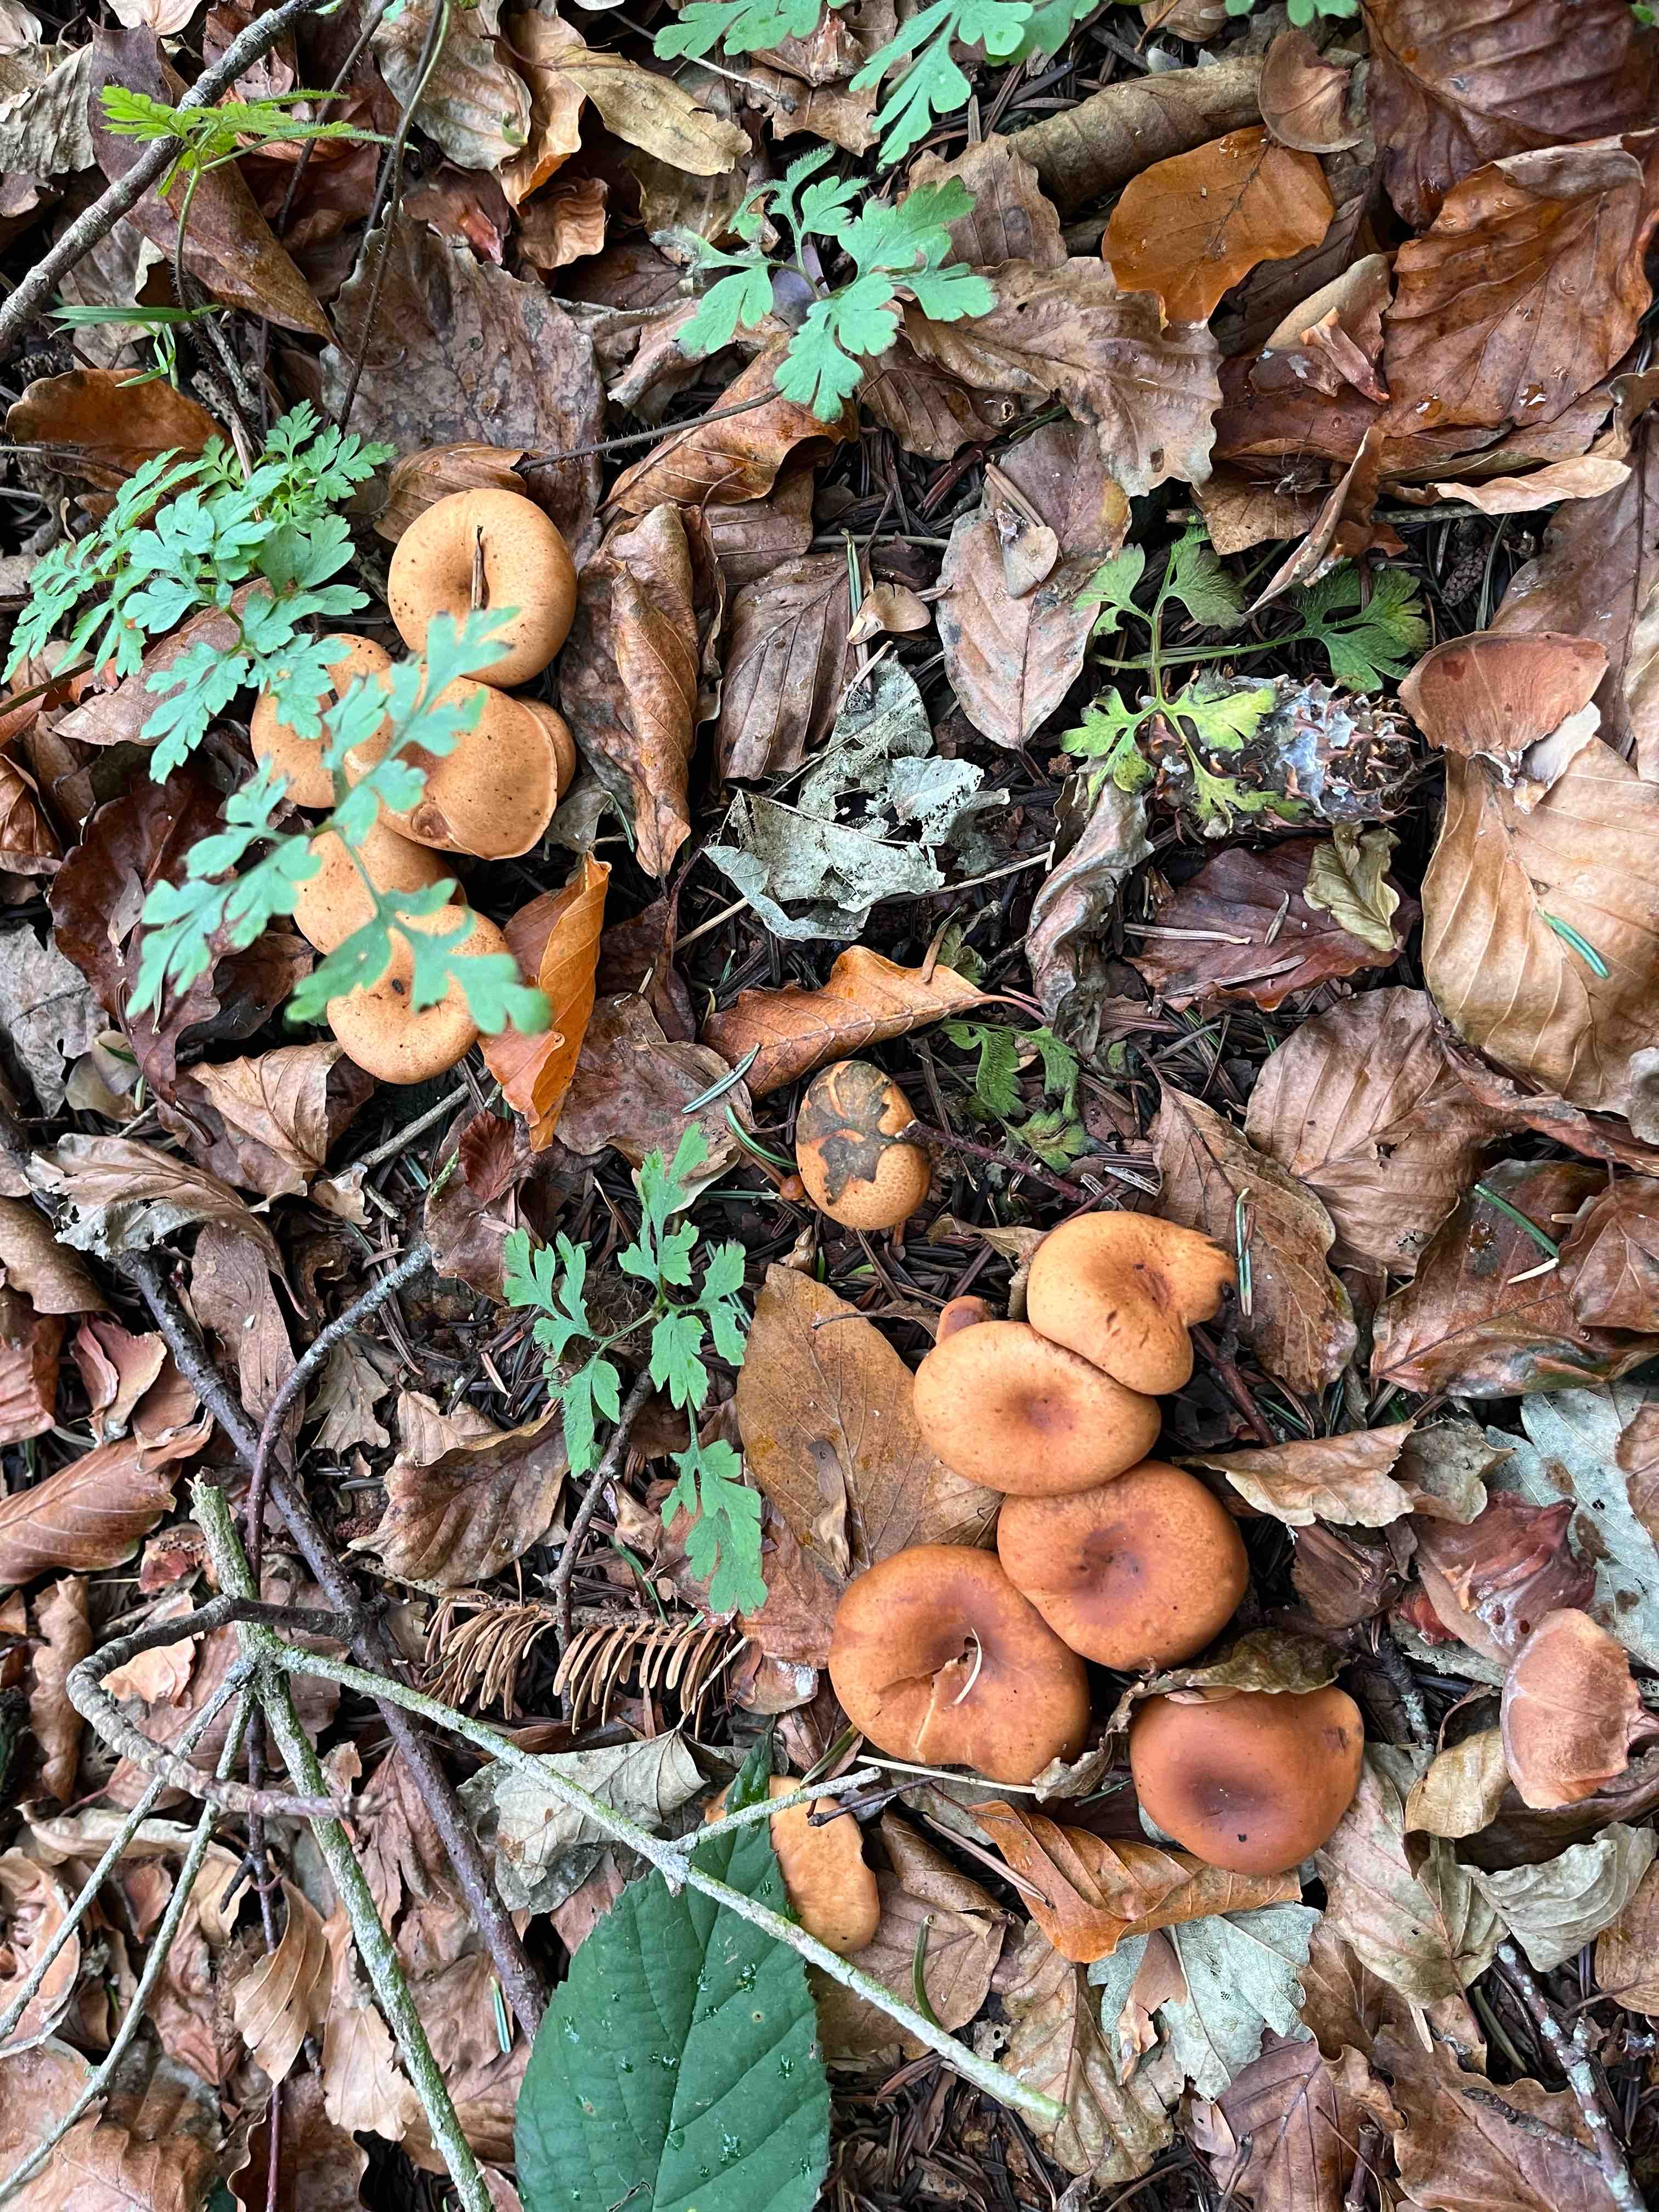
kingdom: Fungi
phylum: Basidiomycota
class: Agaricomycetes
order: Agaricales
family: Tricholomataceae
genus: Paralepista
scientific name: Paralepista flaccida
